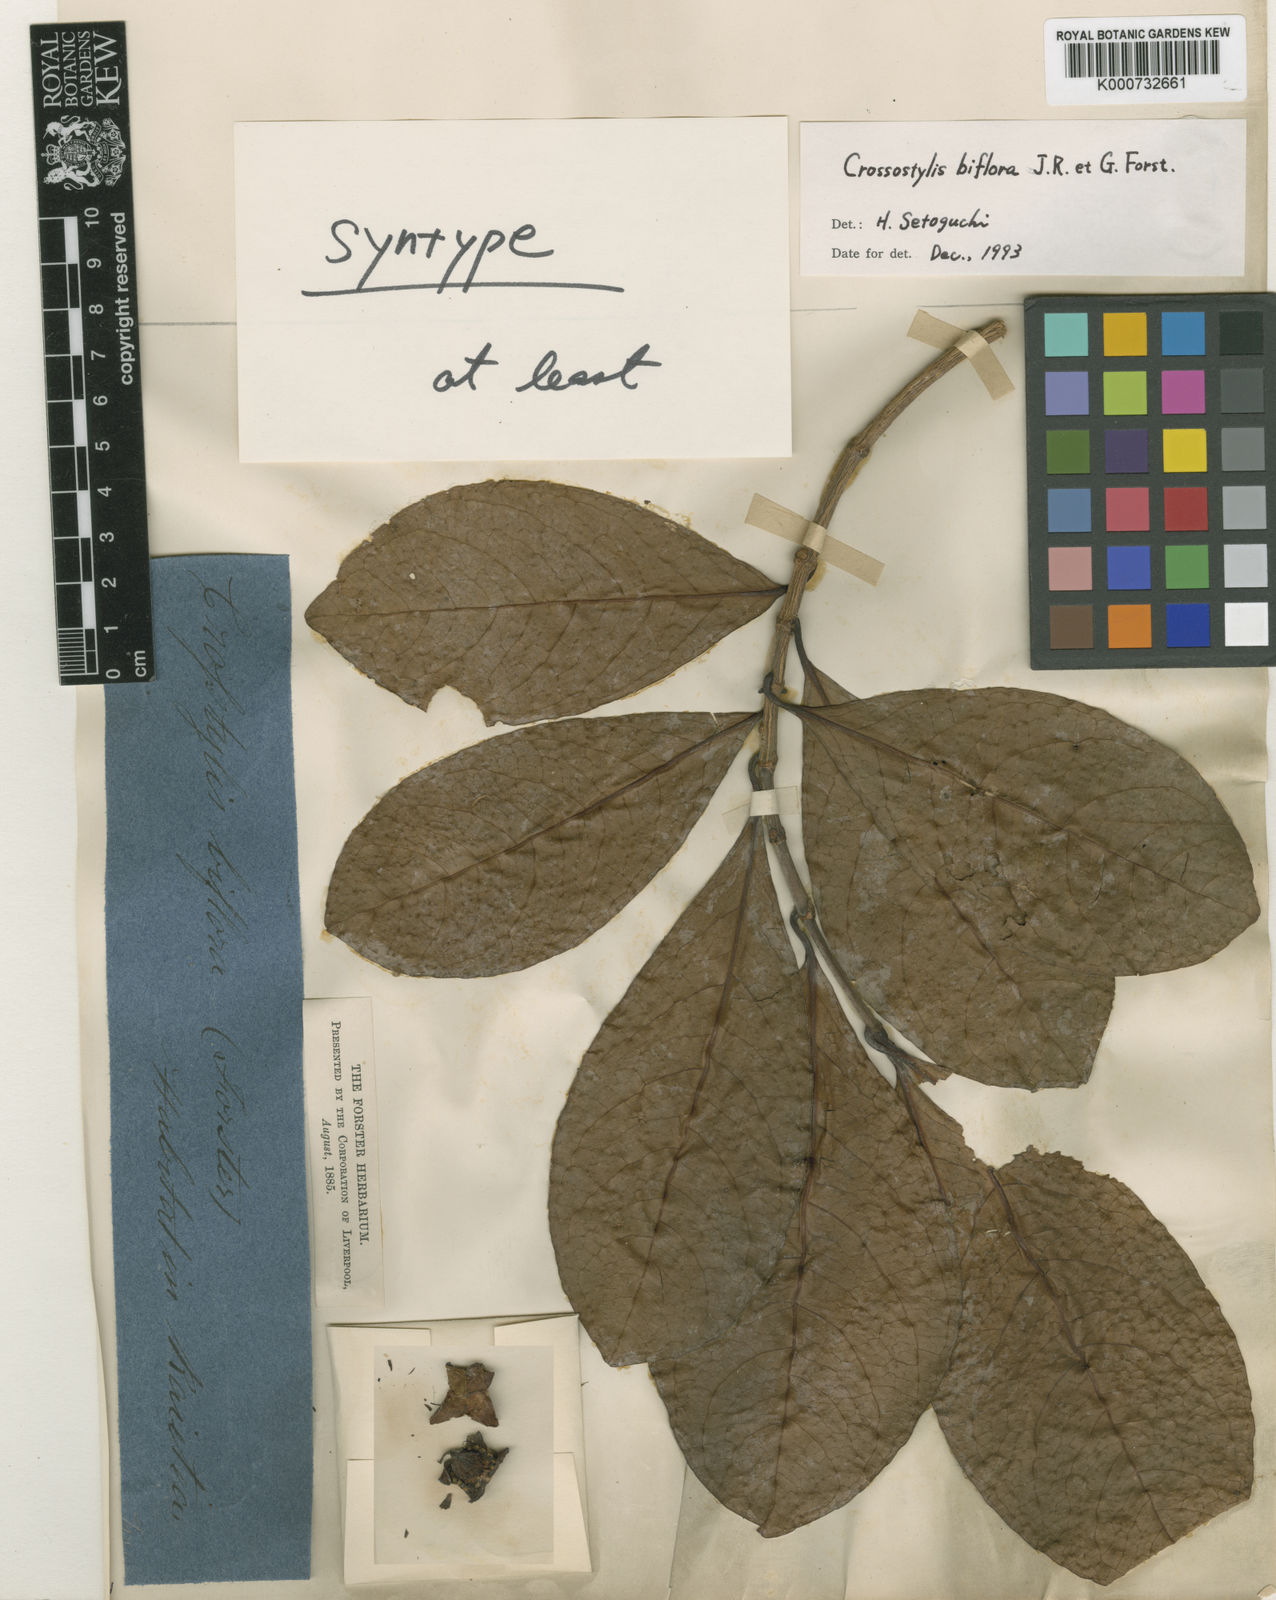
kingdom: Plantae
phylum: Tracheophyta
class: Magnoliopsida
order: Malpighiales
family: Rhizophoraceae
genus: Crossostylis
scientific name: Crossostylis biflora
